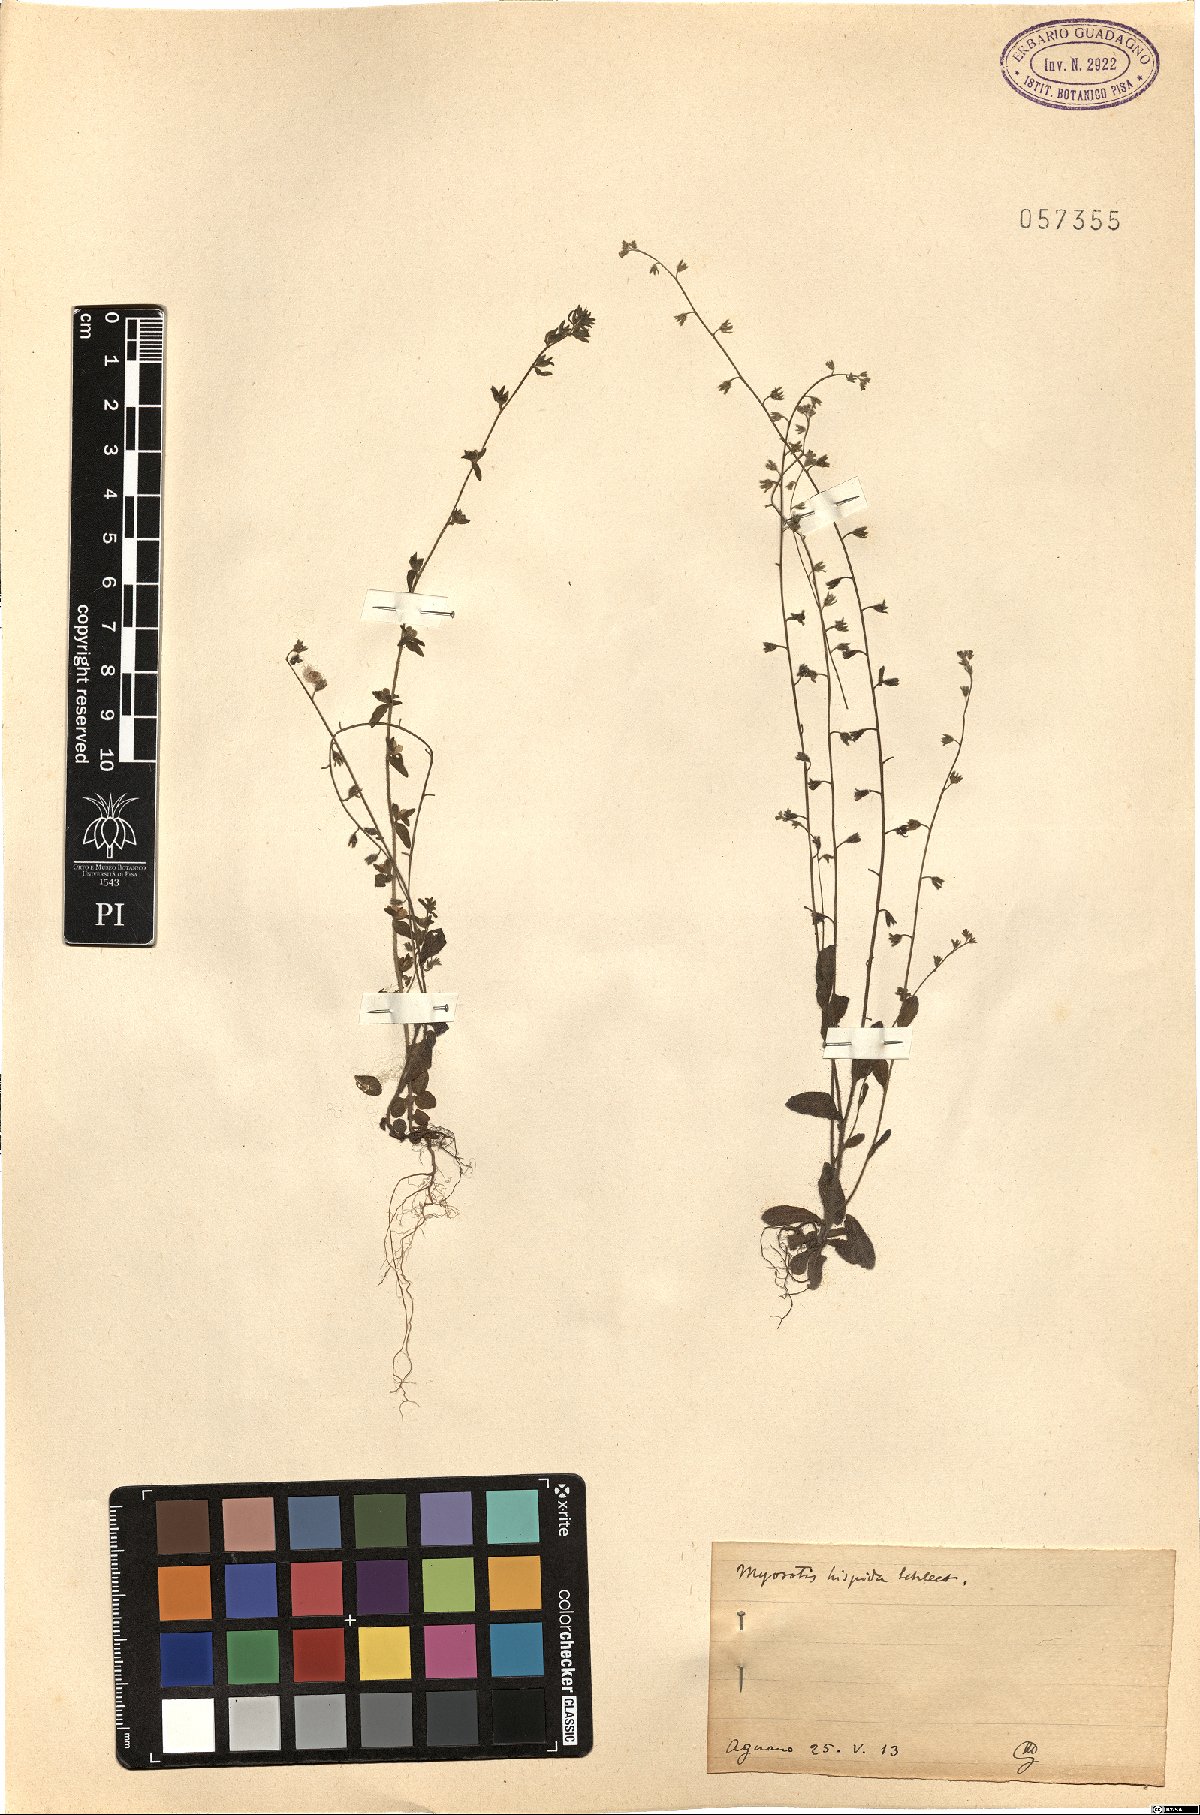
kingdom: Plantae
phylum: Tracheophyta
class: Magnoliopsida
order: Boraginales
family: Boraginaceae
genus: Myosotis
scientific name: Myosotis ramosissima
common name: Early forget-me-not
